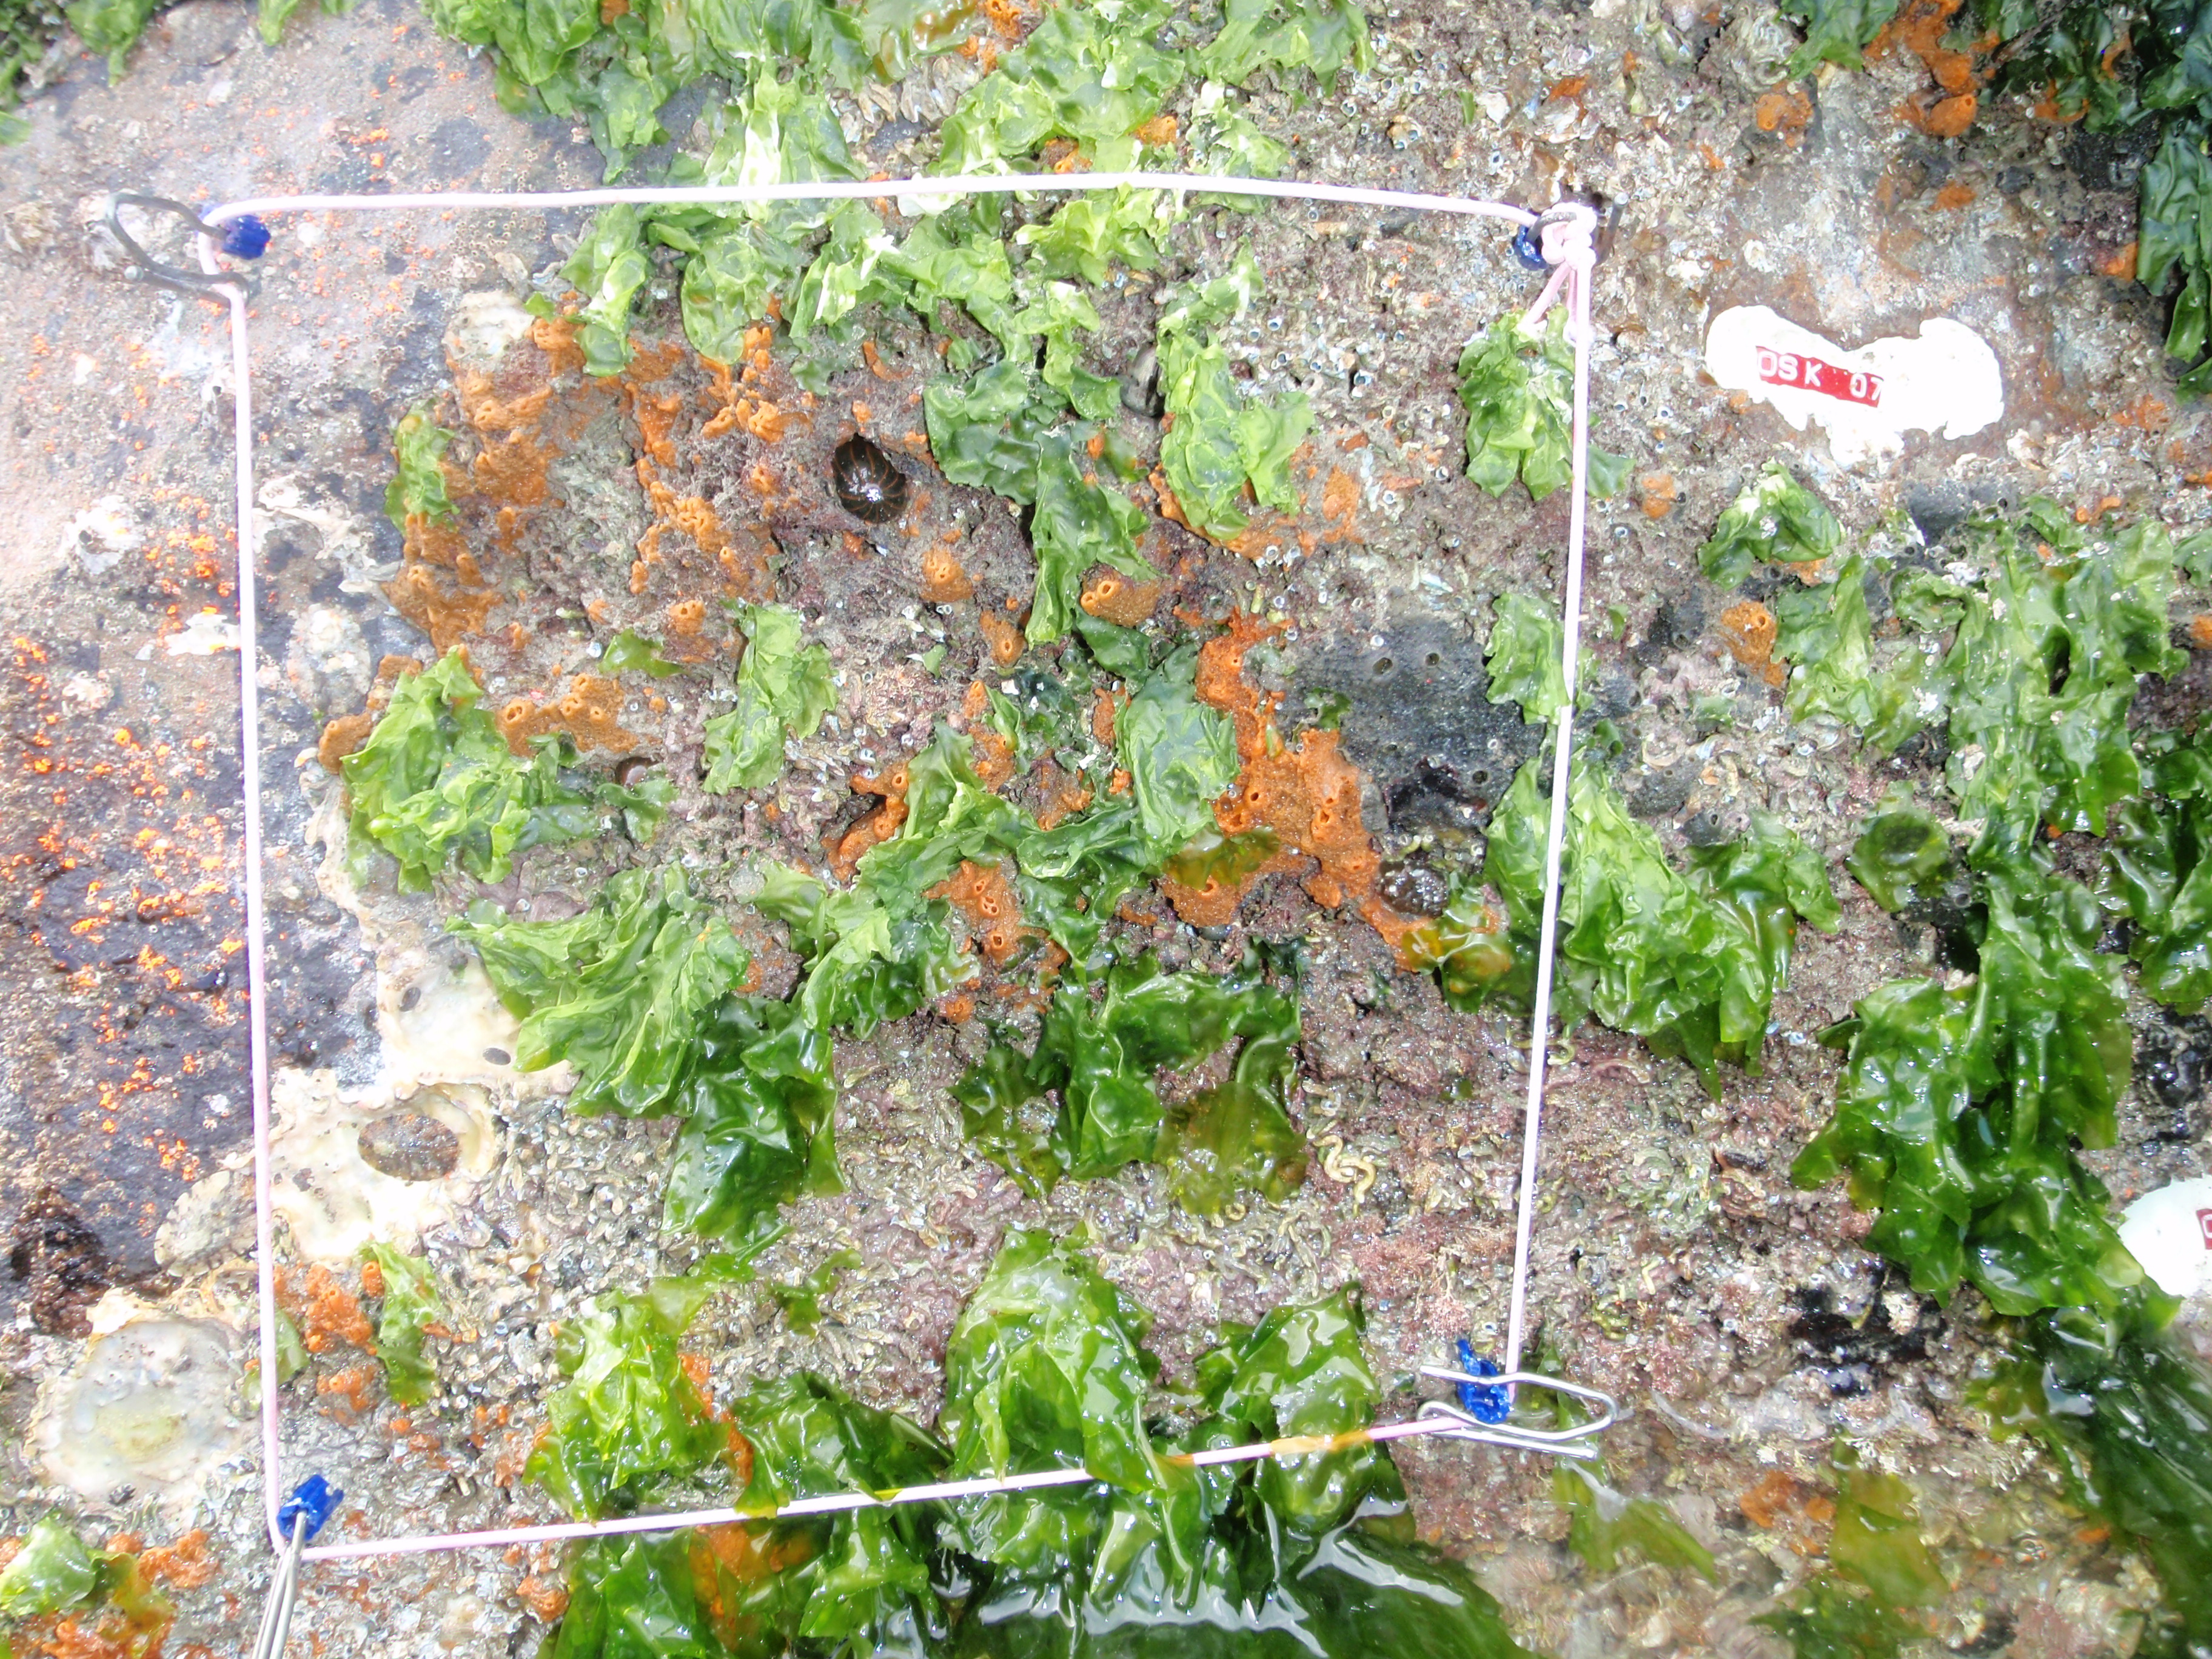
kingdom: Animalia
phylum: Arthropoda
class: Maxillopoda
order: Sessilia
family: Chthamalidae
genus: Chthamalus
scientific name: Chthamalus challengeri
